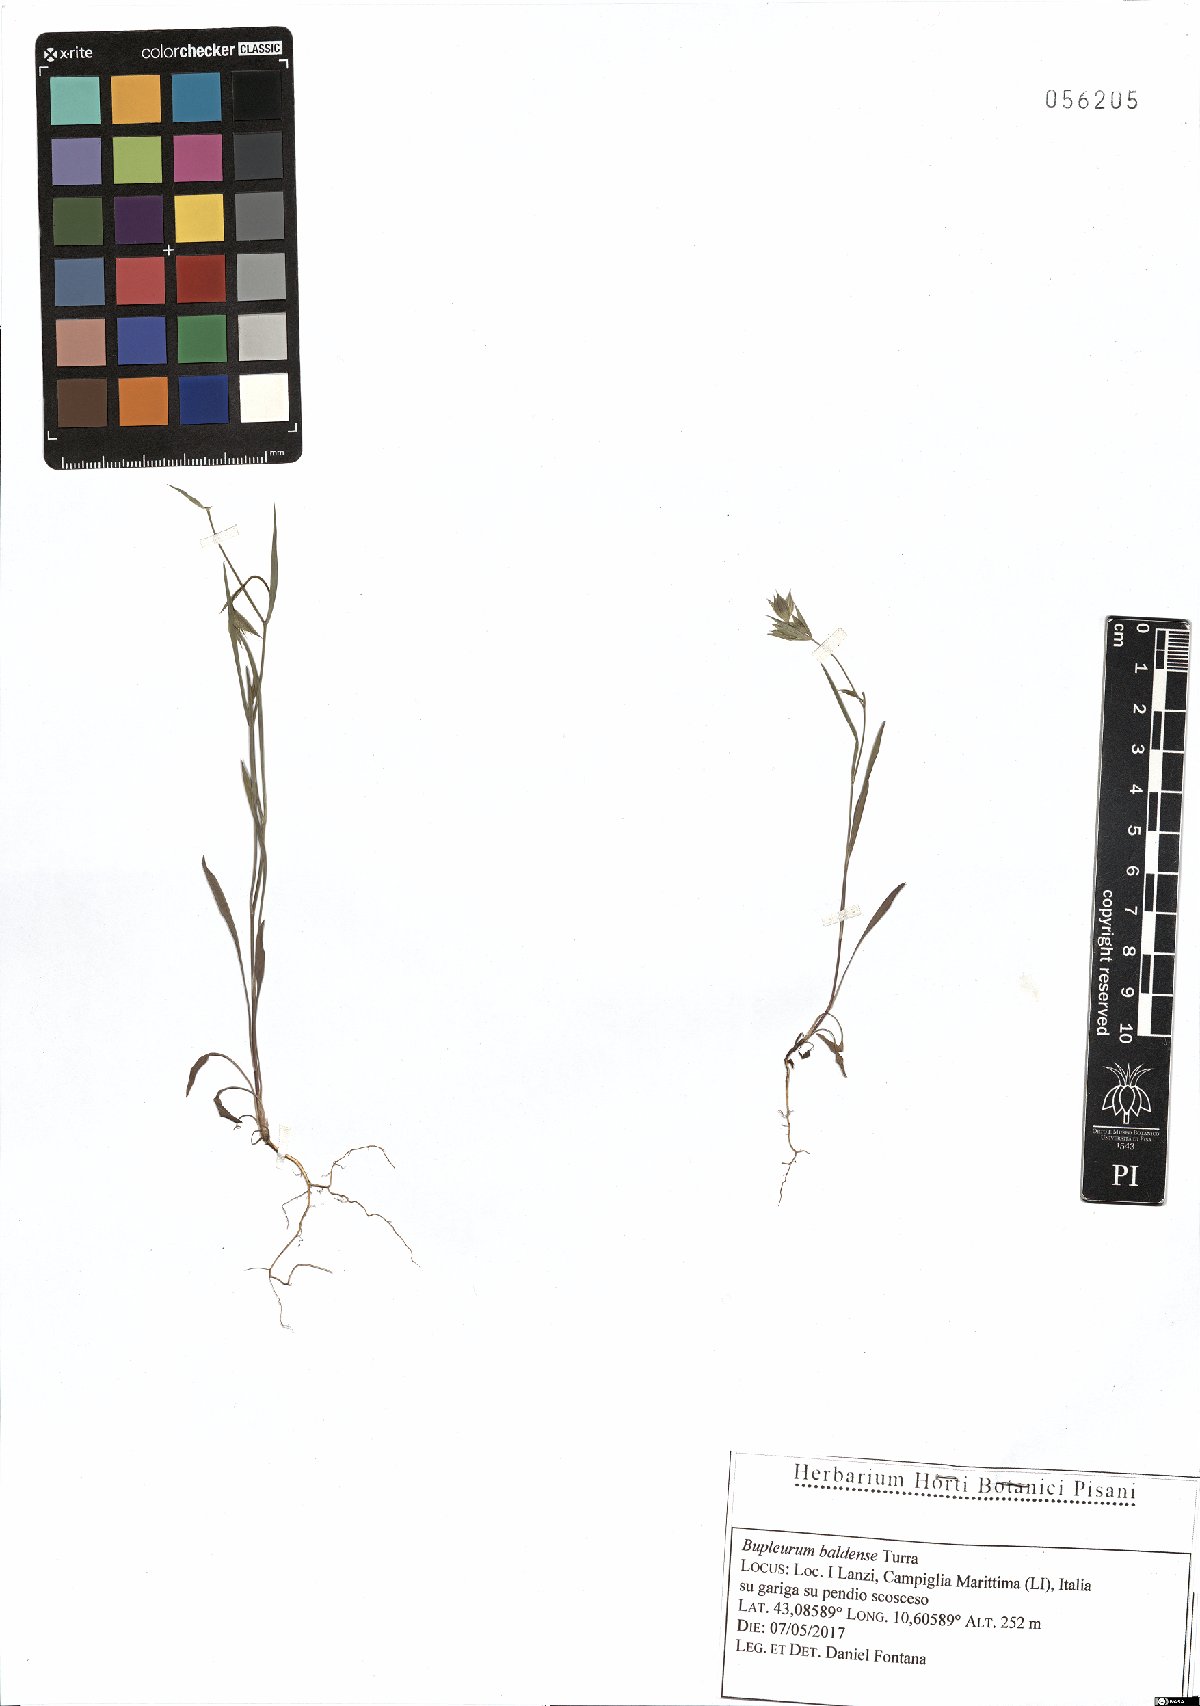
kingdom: Plantae
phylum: Tracheophyta
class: Magnoliopsida
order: Apiales
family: Apiaceae
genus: Bupleurum
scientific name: Bupleurum baldense
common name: Small hare's-ear
